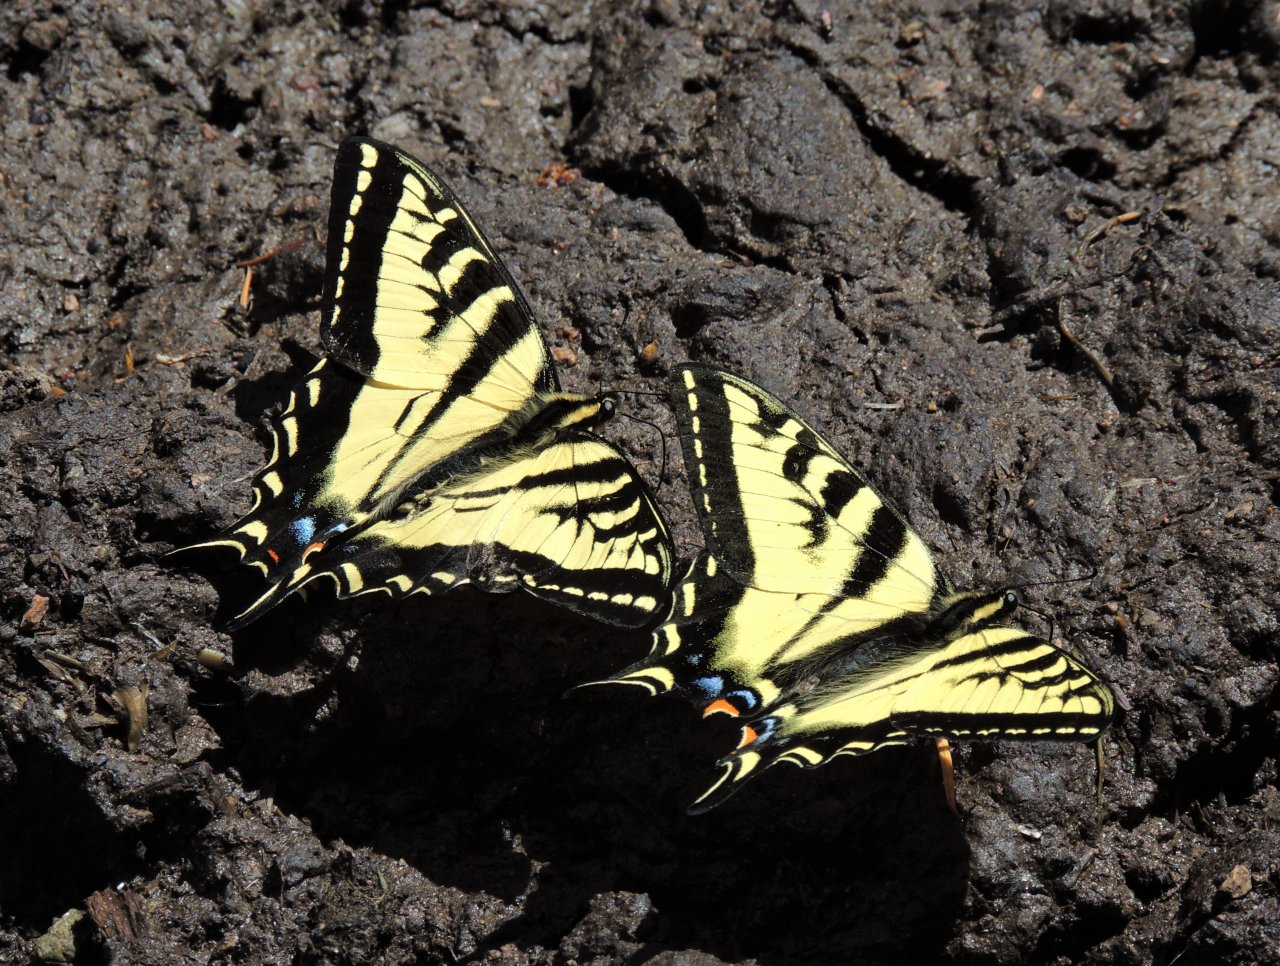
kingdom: Animalia
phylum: Arthropoda
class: Insecta
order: Lepidoptera
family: Papilionidae
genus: Pterourus
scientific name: Pterourus rutulus
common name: Western Tiger Swallowtail
